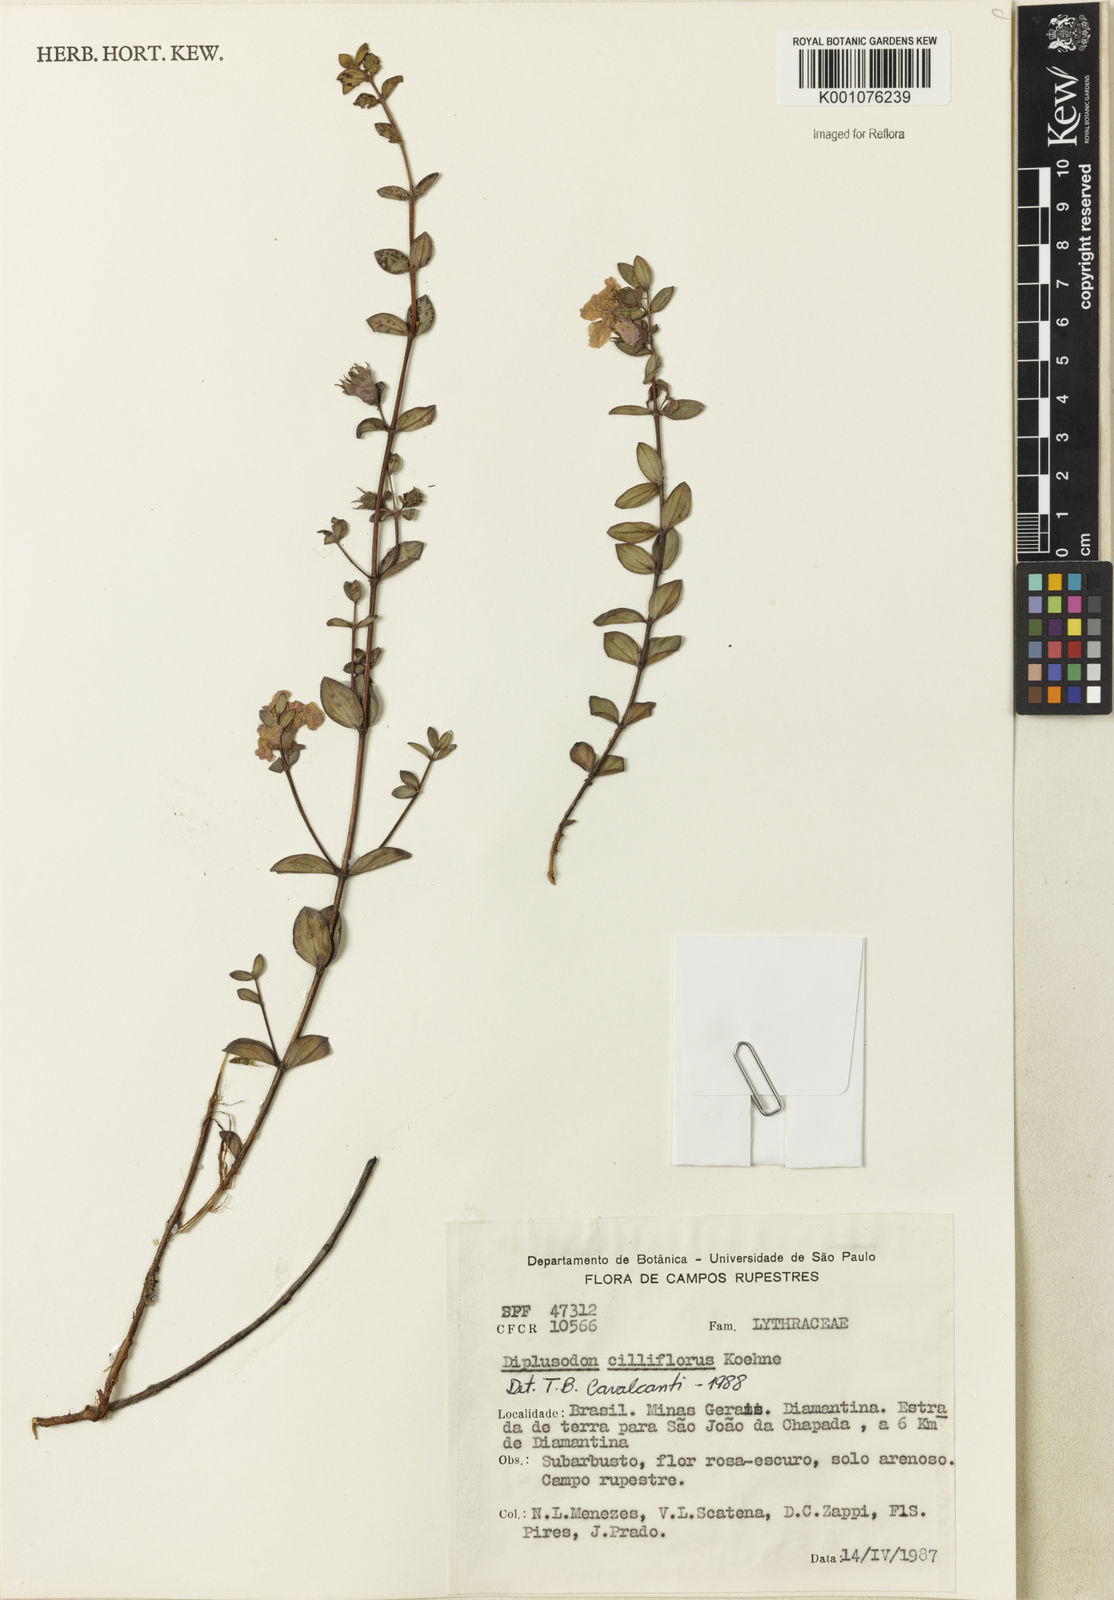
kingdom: Plantae
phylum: Tracheophyta
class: Magnoliopsida
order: Myrtales
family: Lythraceae
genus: Diplusodon
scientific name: Diplusodon ciliiflorus
